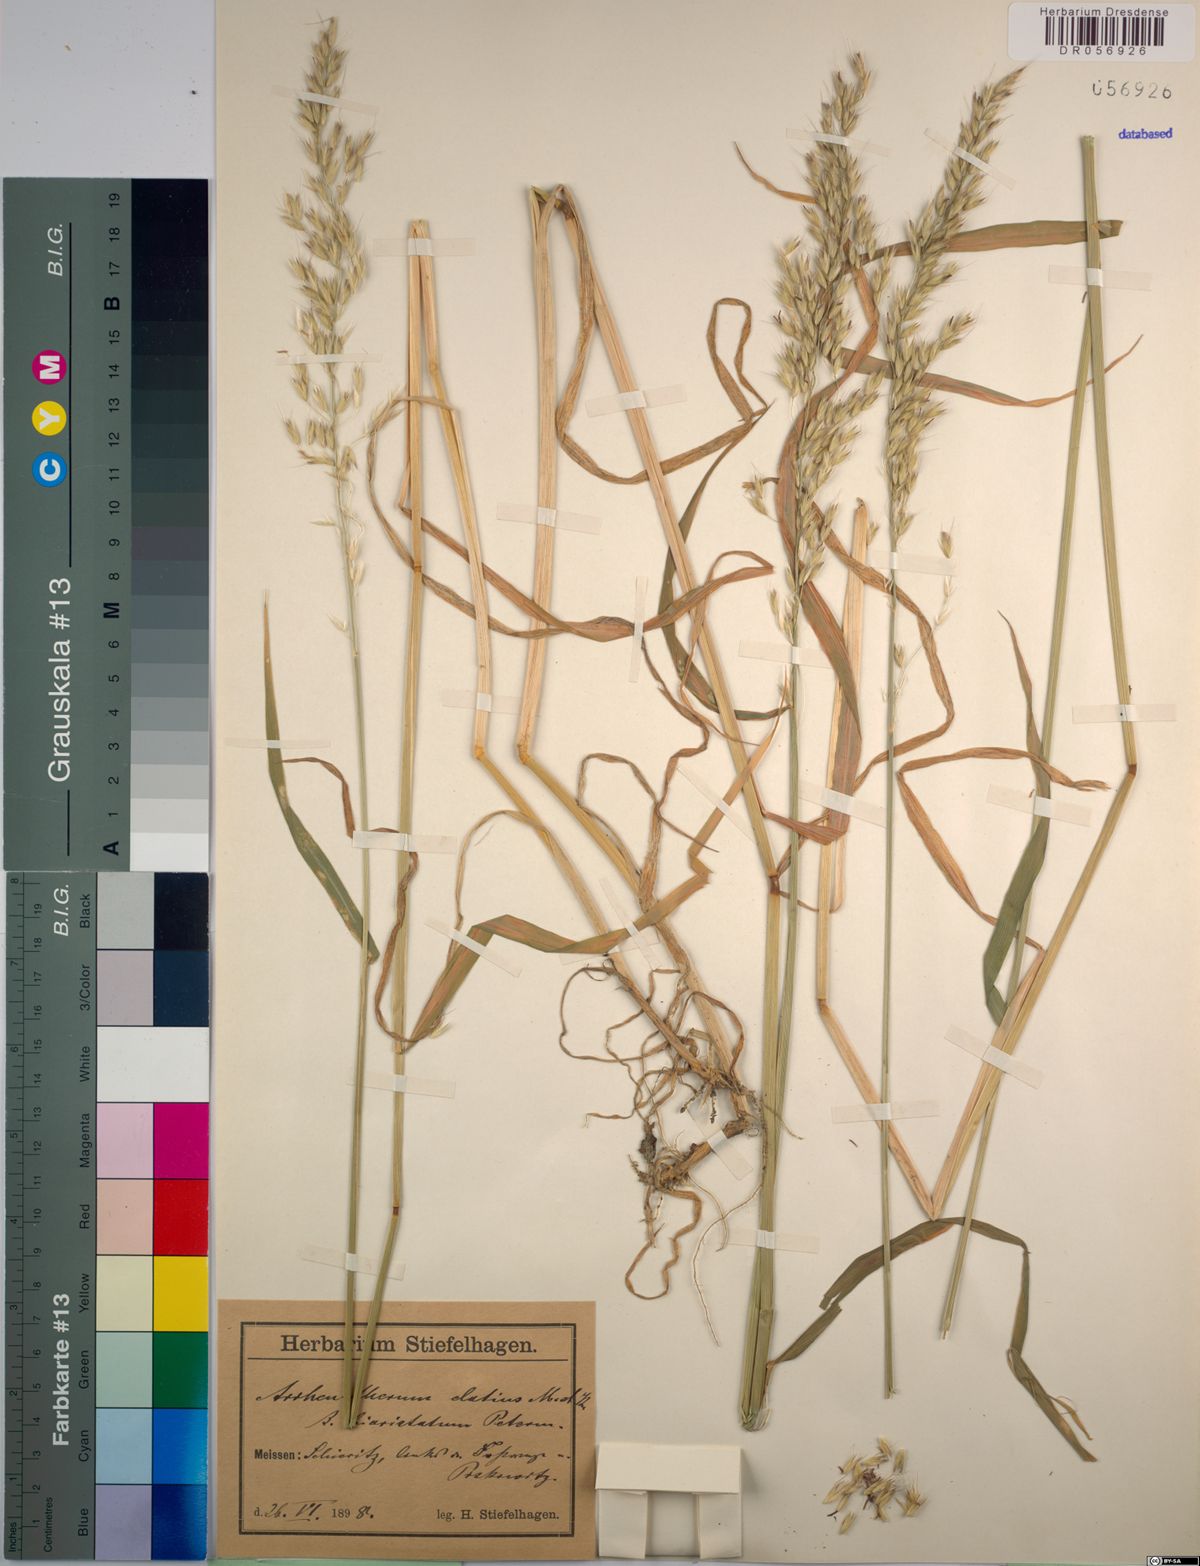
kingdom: Plantae
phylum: Tracheophyta
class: Liliopsida
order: Poales
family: Poaceae
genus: Arrhenatherum
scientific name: Arrhenatherum elatius
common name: Tall oatgrass
